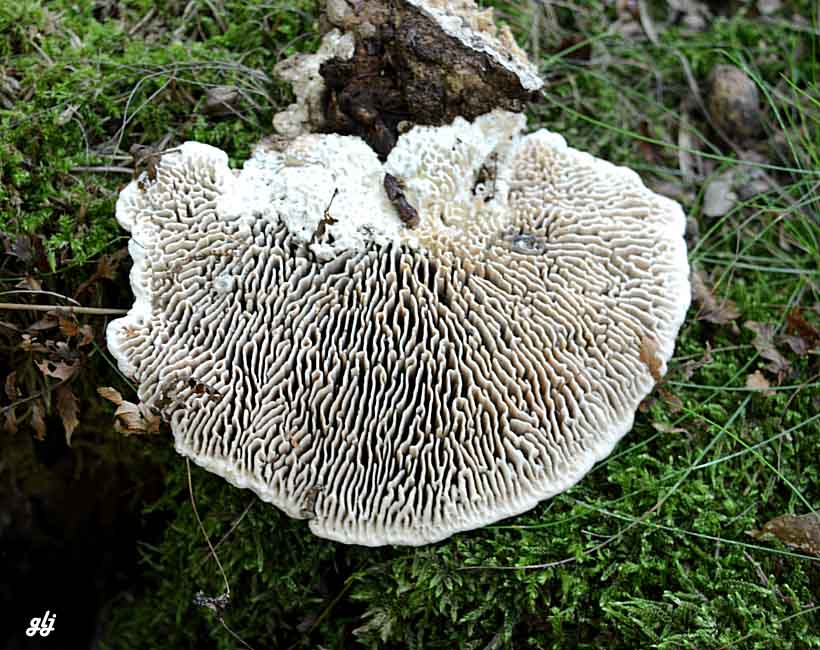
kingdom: Fungi
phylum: Basidiomycota
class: Agaricomycetes
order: Polyporales
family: Fomitopsidaceae
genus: Daedalea
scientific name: Daedalea quercina
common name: ege-labyrintsvamp
